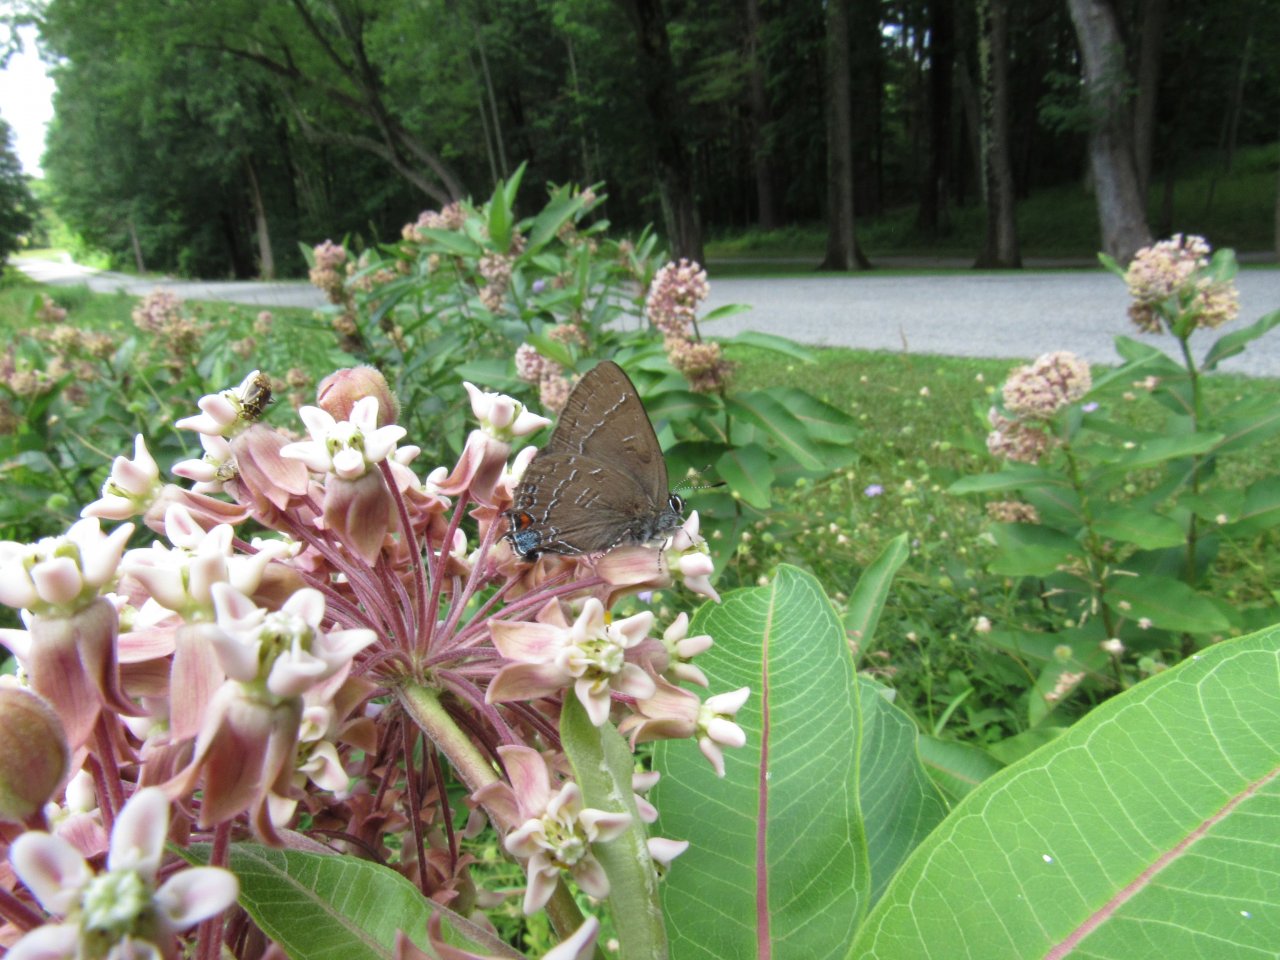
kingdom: Animalia
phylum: Arthropoda
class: Insecta
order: Lepidoptera
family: Lycaenidae
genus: Satyrium
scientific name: Satyrium calanus
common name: Banded Hairstreak
